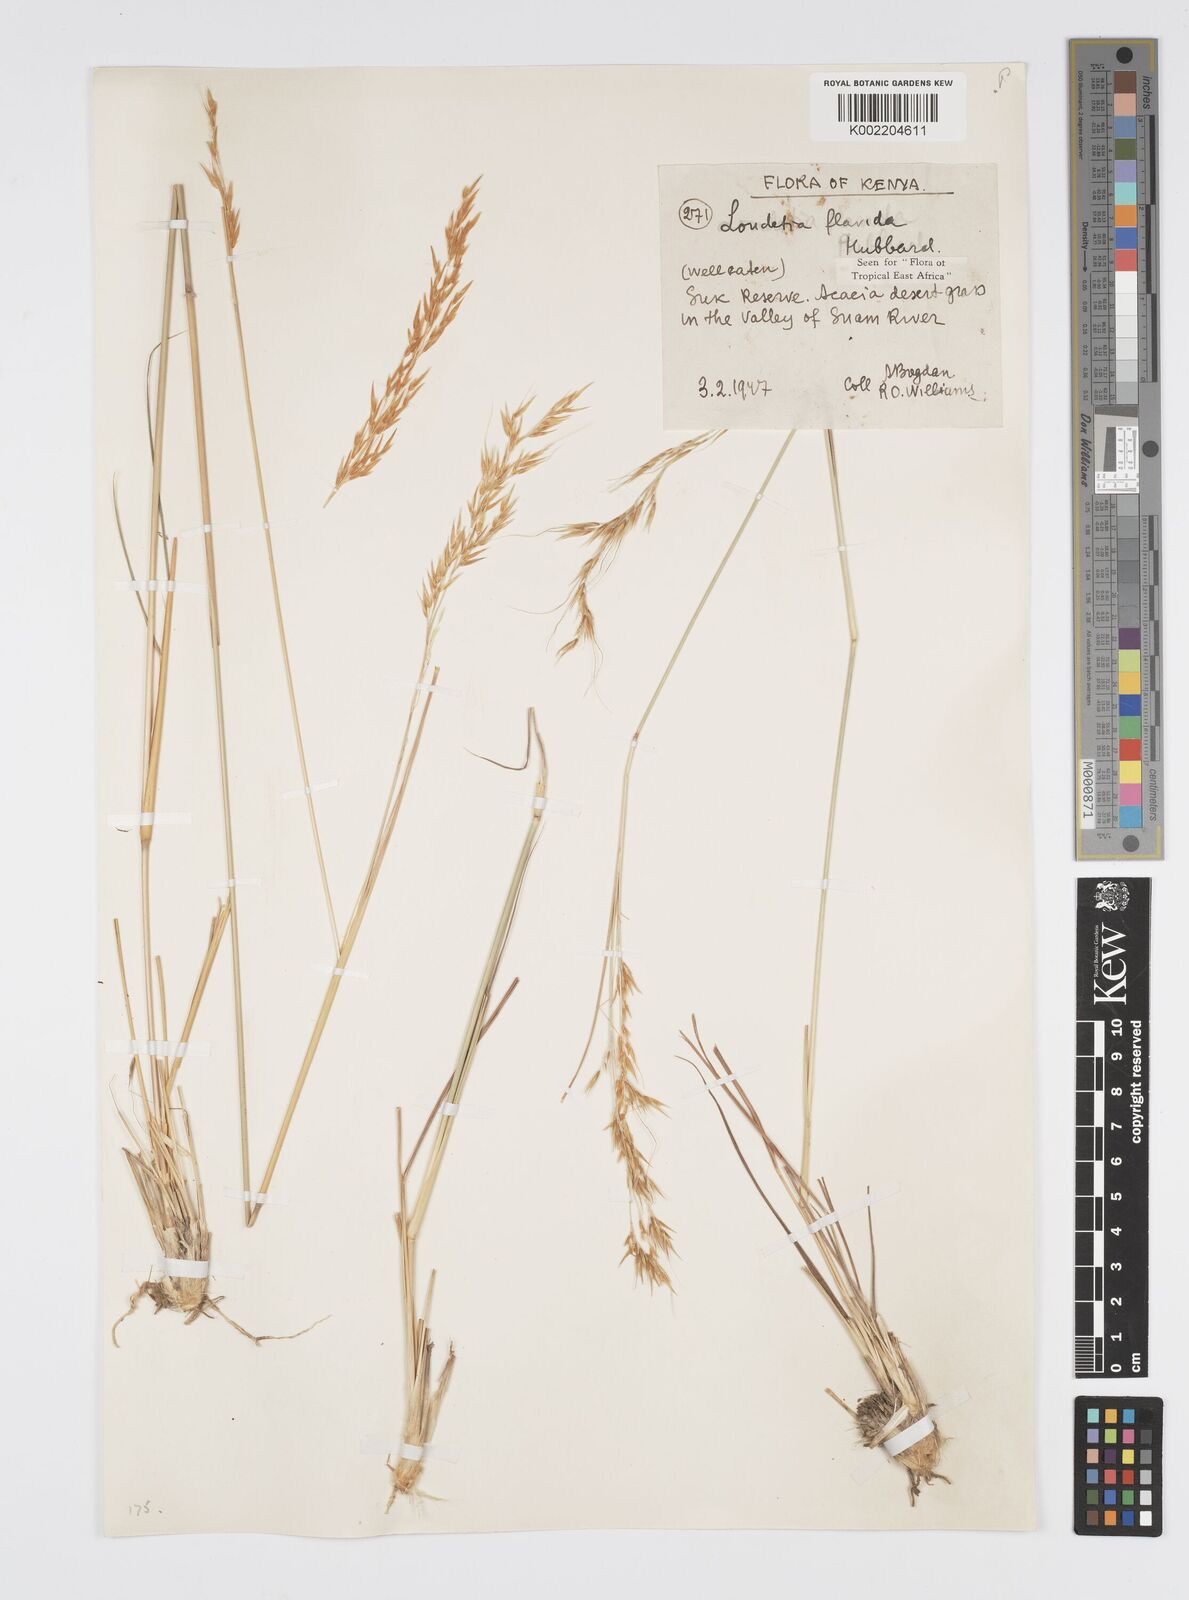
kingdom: Plantae
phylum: Tracheophyta
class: Liliopsida
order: Poales
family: Poaceae
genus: Loudetia
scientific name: Loudetia flavida
